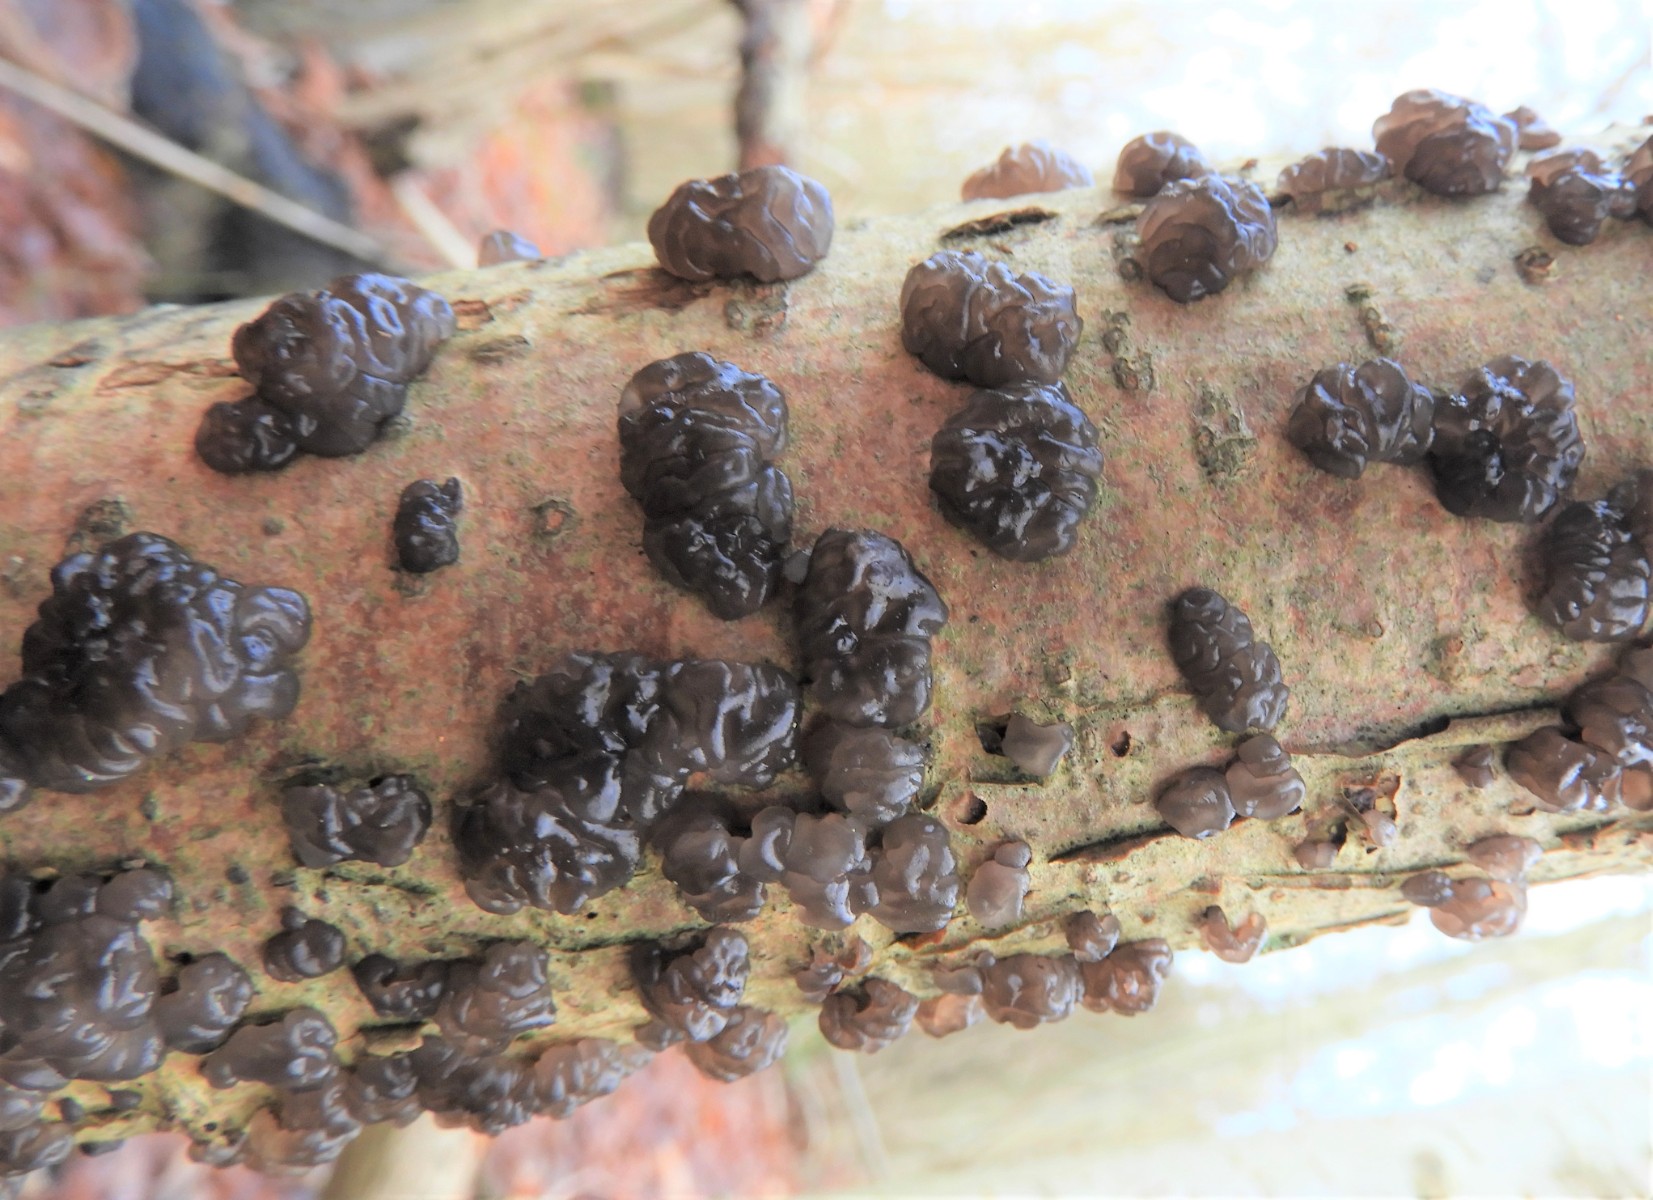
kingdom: Fungi
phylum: Basidiomycota
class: Agaricomycetes
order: Auriculariales
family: Auriculariaceae
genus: Exidia
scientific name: Exidia nigricans
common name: almindelig bævretop
